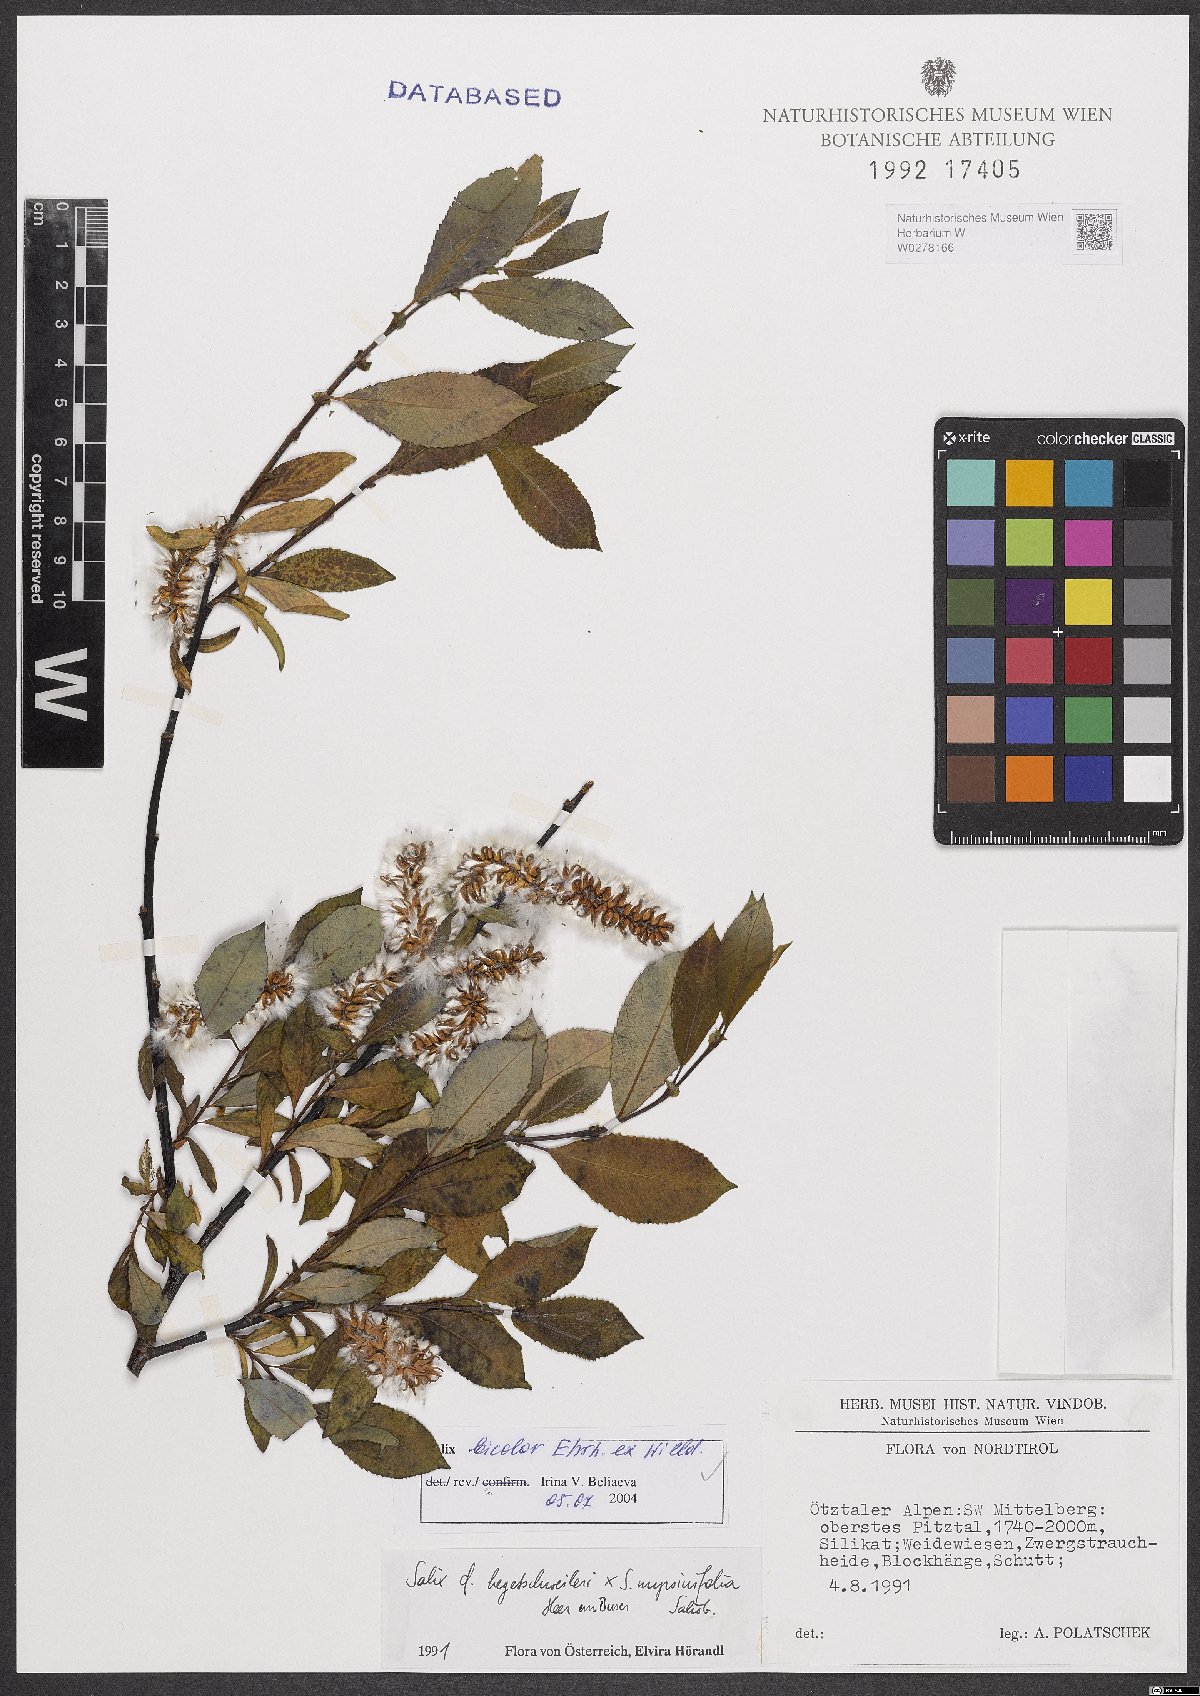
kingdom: Plantae
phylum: Tracheophyta
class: Magnoliopsida
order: Malpighiales
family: Salicaceae
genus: Salix
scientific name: Salix bicolor
